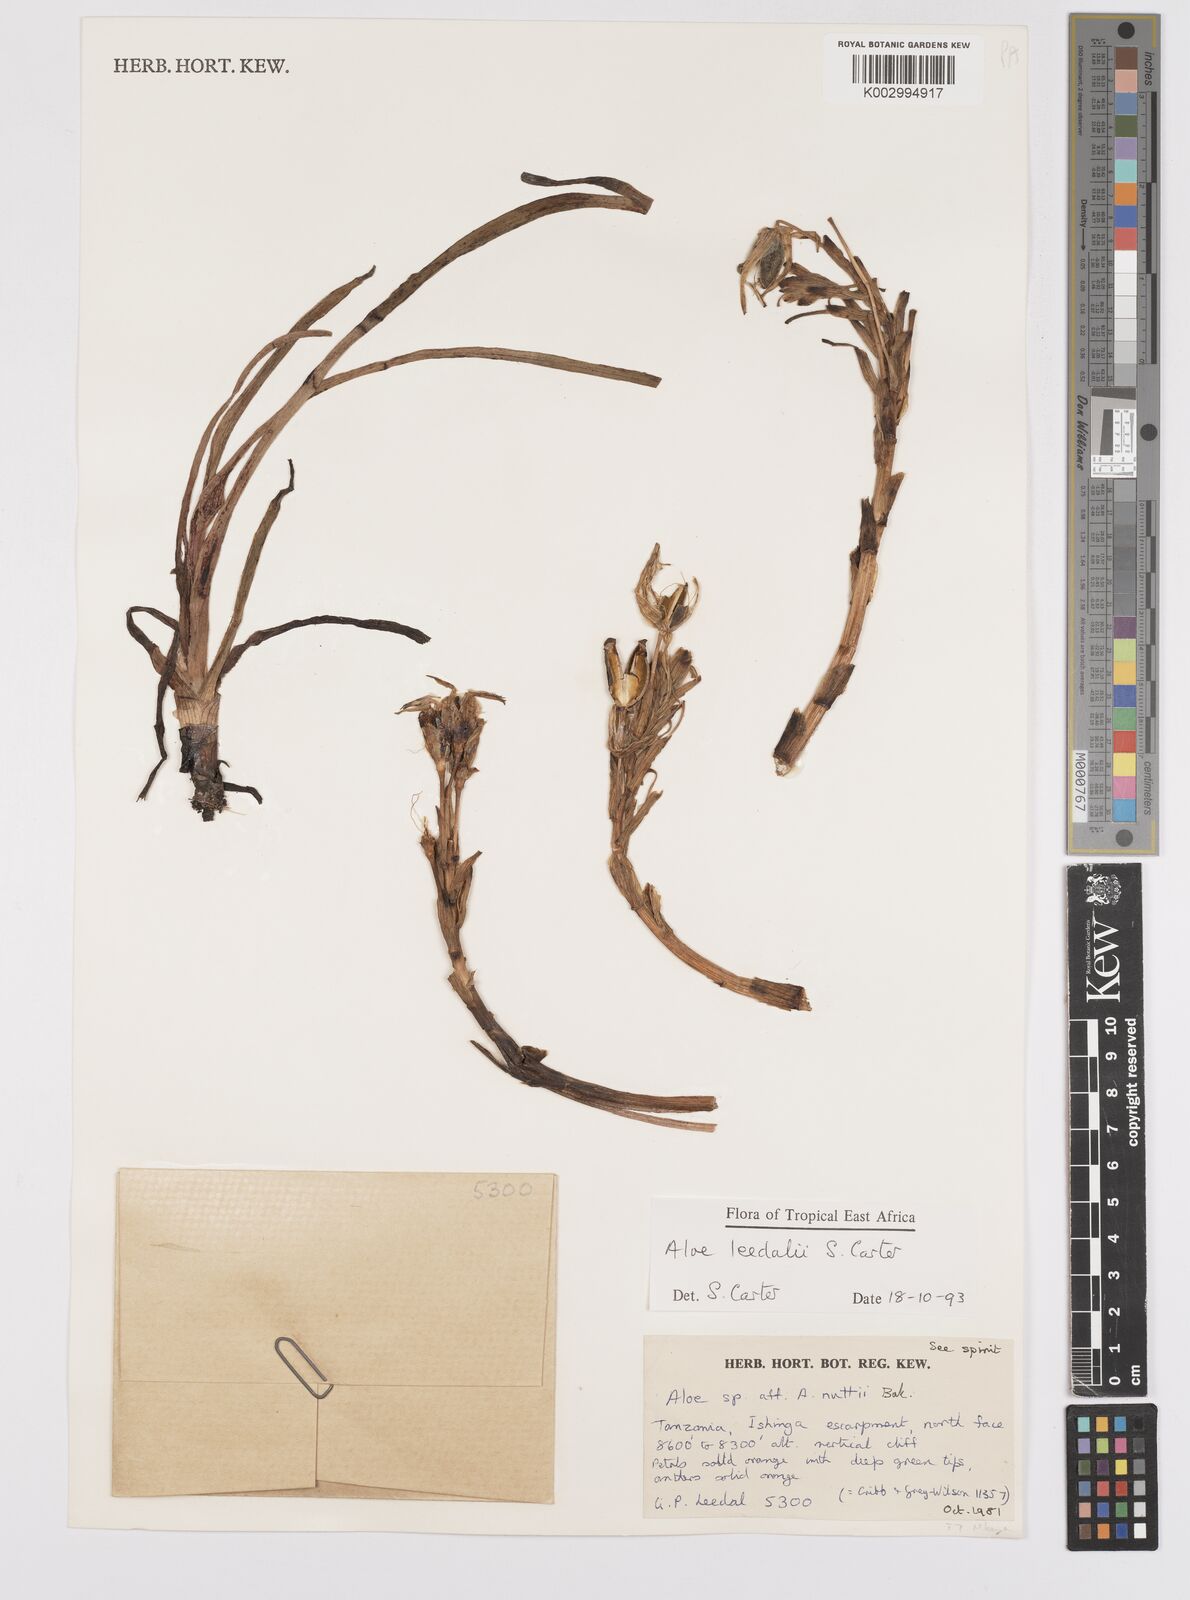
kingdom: Plantae
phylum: Tracheophyta
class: Liliopsida
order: Asparagales
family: Asphodelaceae
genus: Aloe
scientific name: Aloe leedalii
